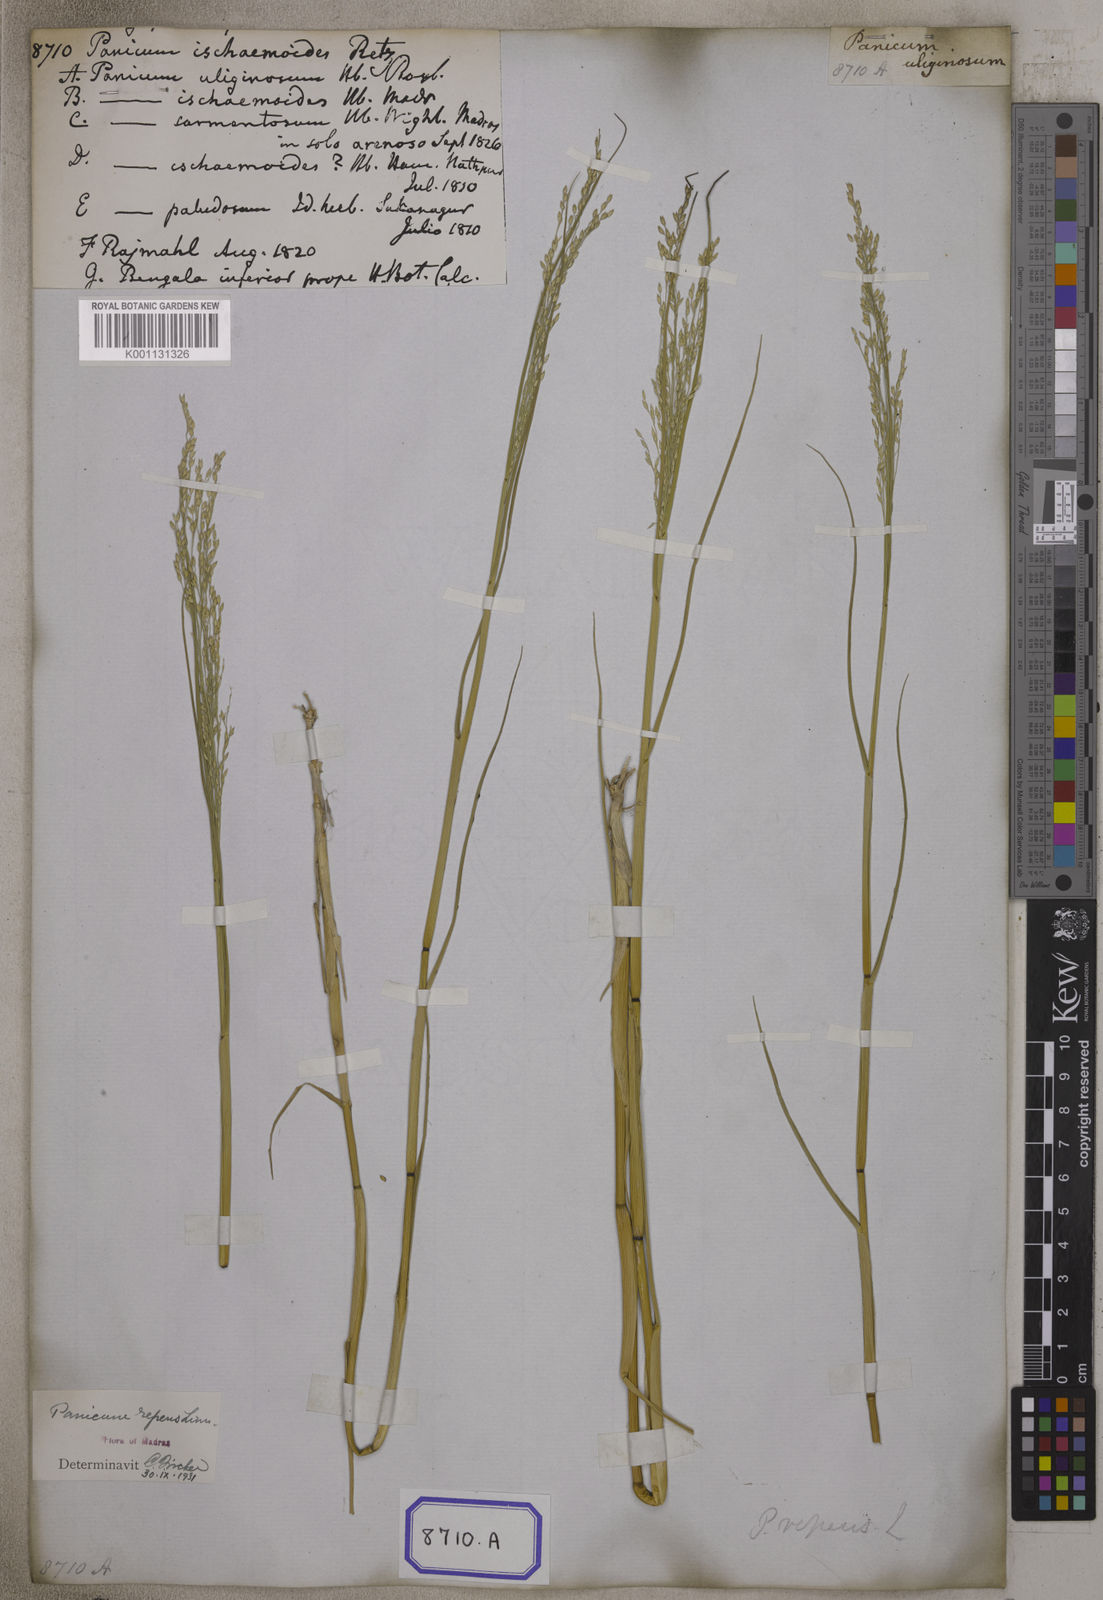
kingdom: Plantae
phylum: Tracheophyta
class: Liliopsida
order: Poales
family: Poaceae
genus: Panicum
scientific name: Panicum repens
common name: Torpedo grass
